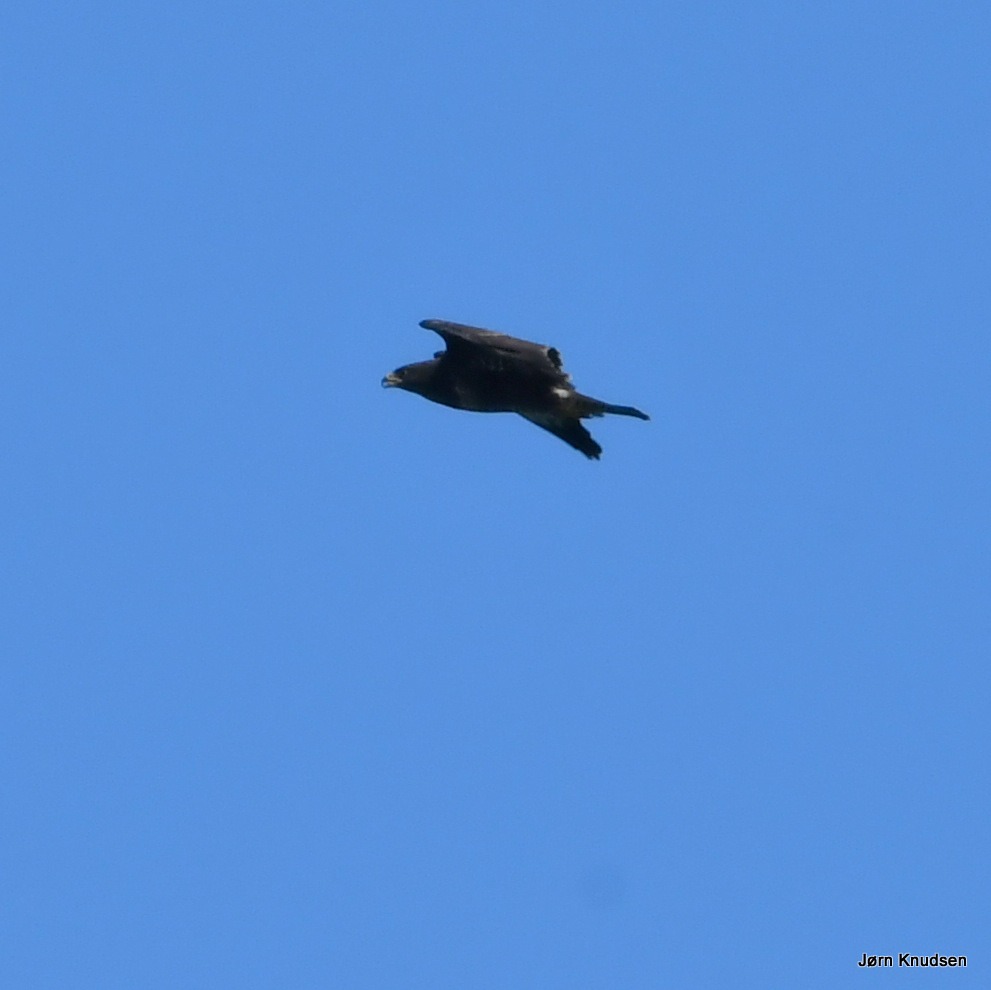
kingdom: Animalia
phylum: Chordata
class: Aves
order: Accipitriformes
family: Accipitridae
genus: Buteo
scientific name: Buteo buteo
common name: Musvåge
